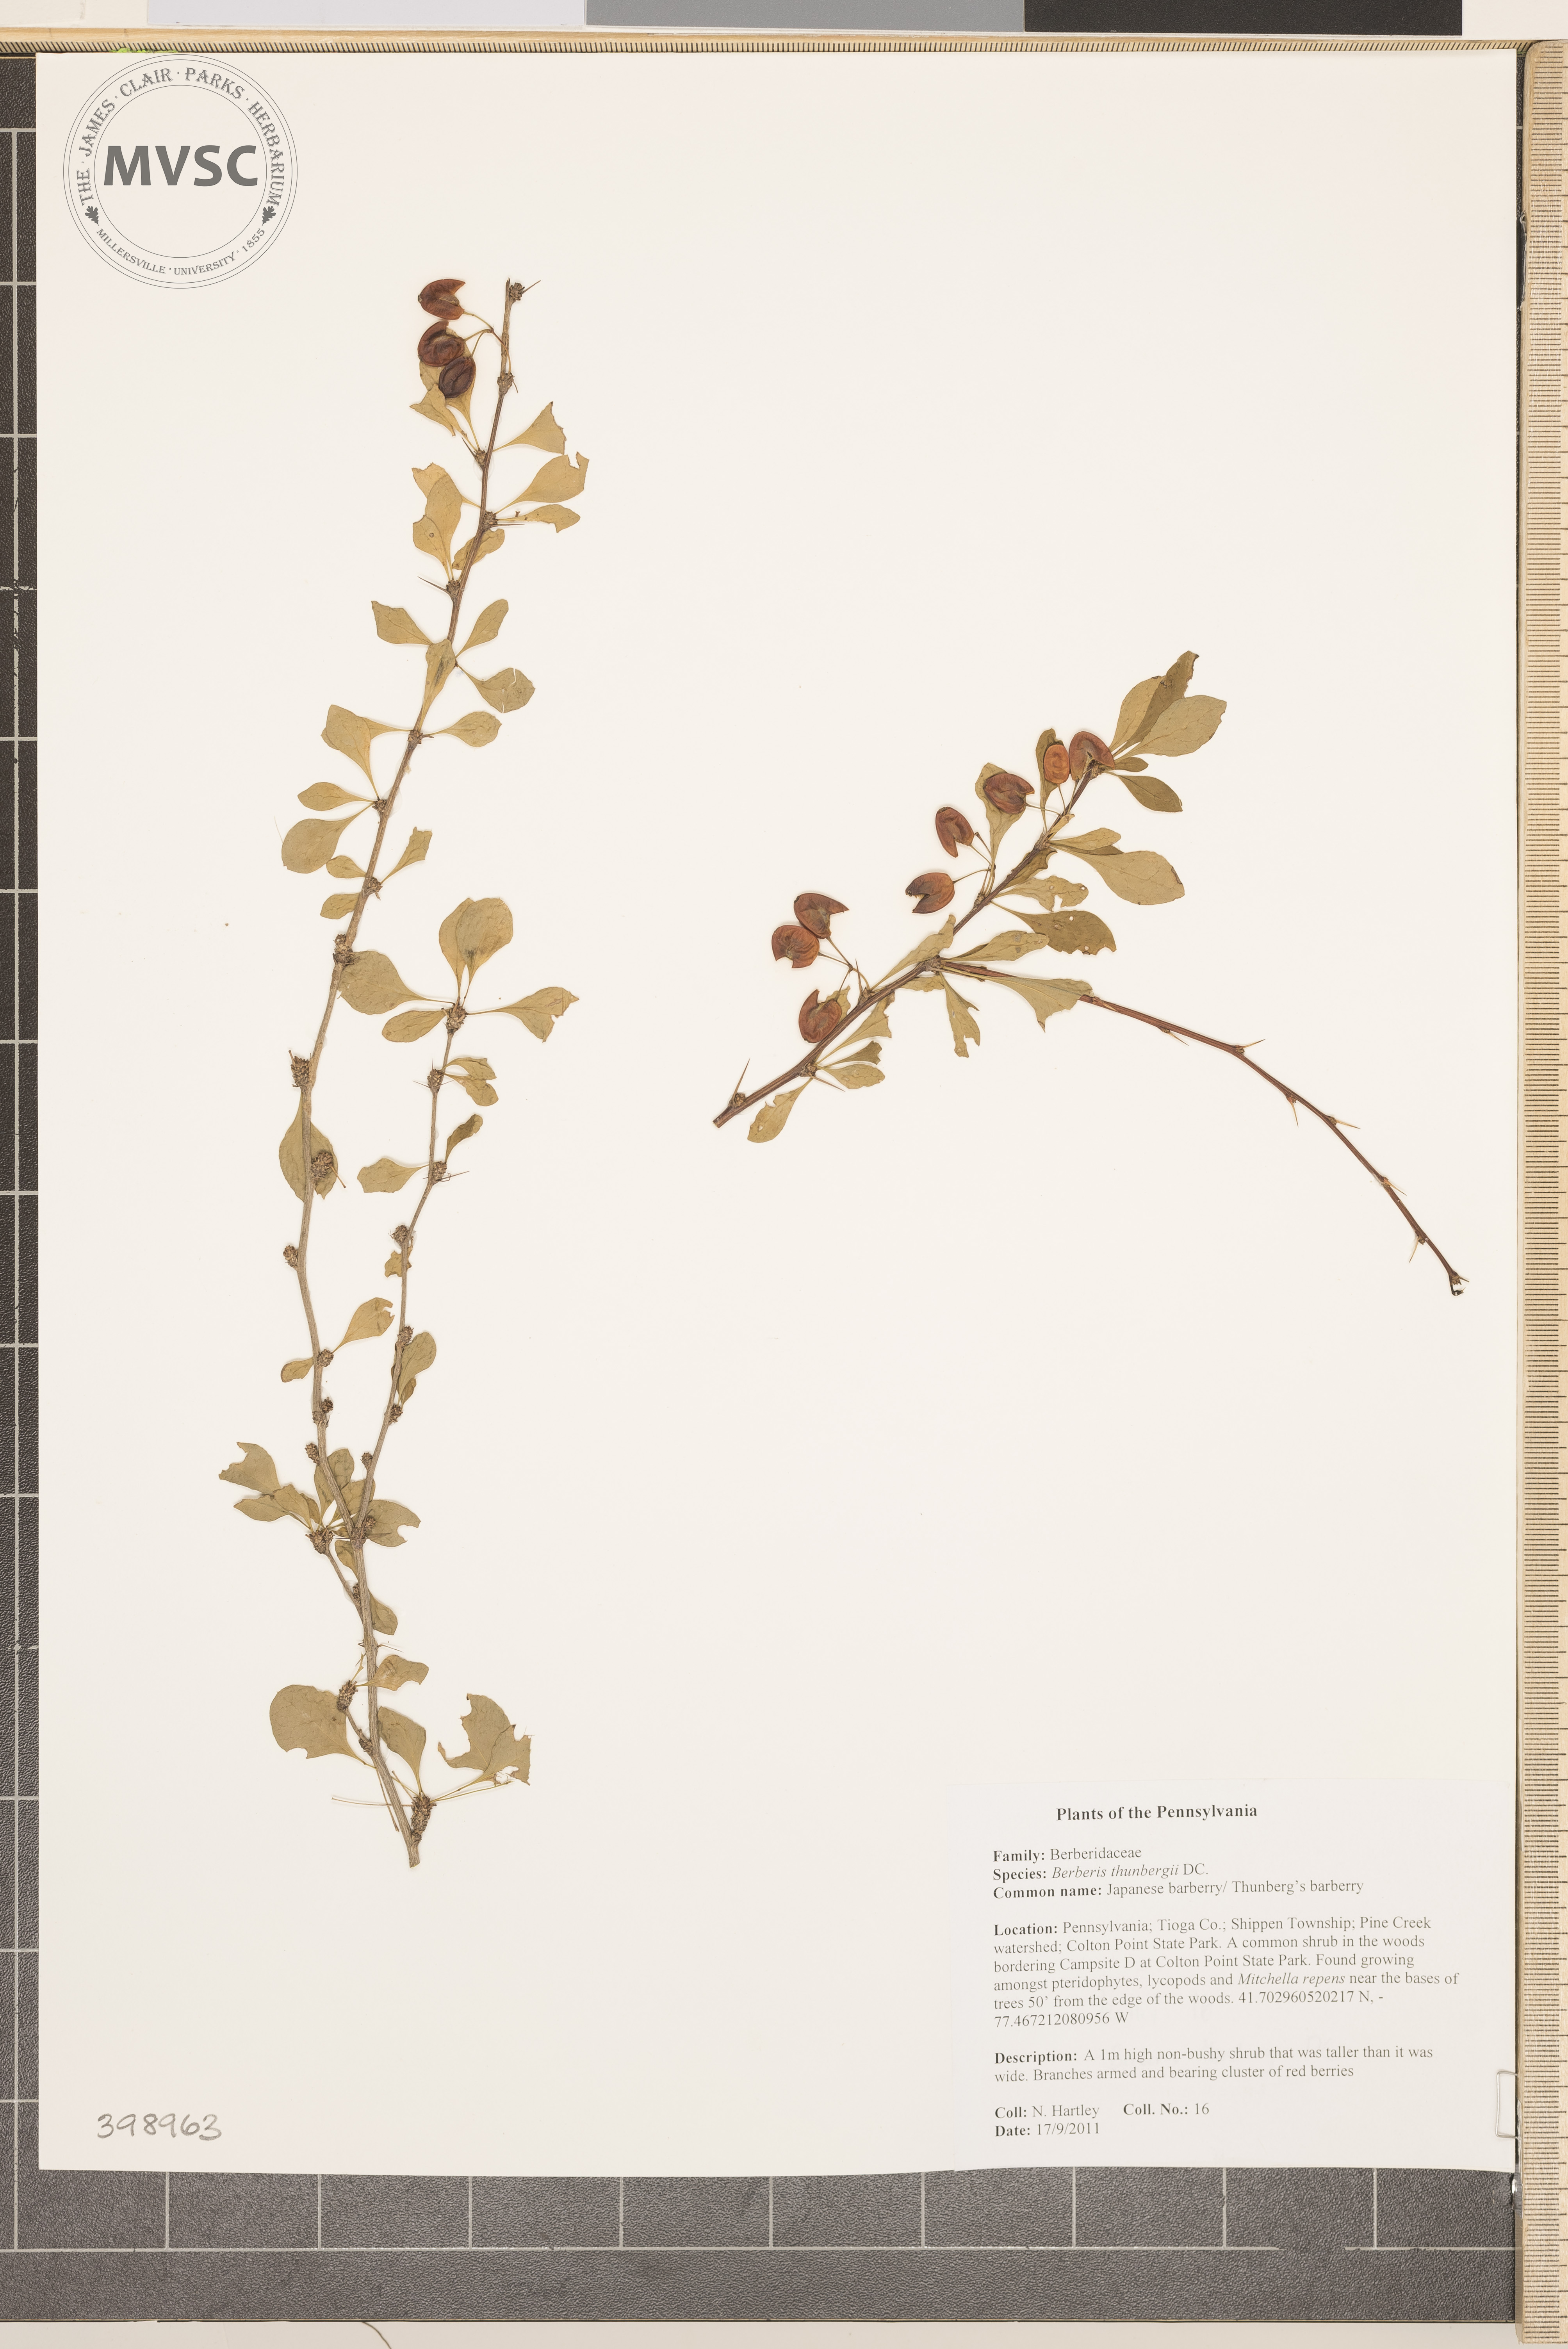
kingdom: Plantae
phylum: Tracheophyta
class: Magnoliopsida
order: Ranunculales
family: Berberidaceae
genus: Berberis
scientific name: Berberis thunbergii
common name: Japanese barberry
